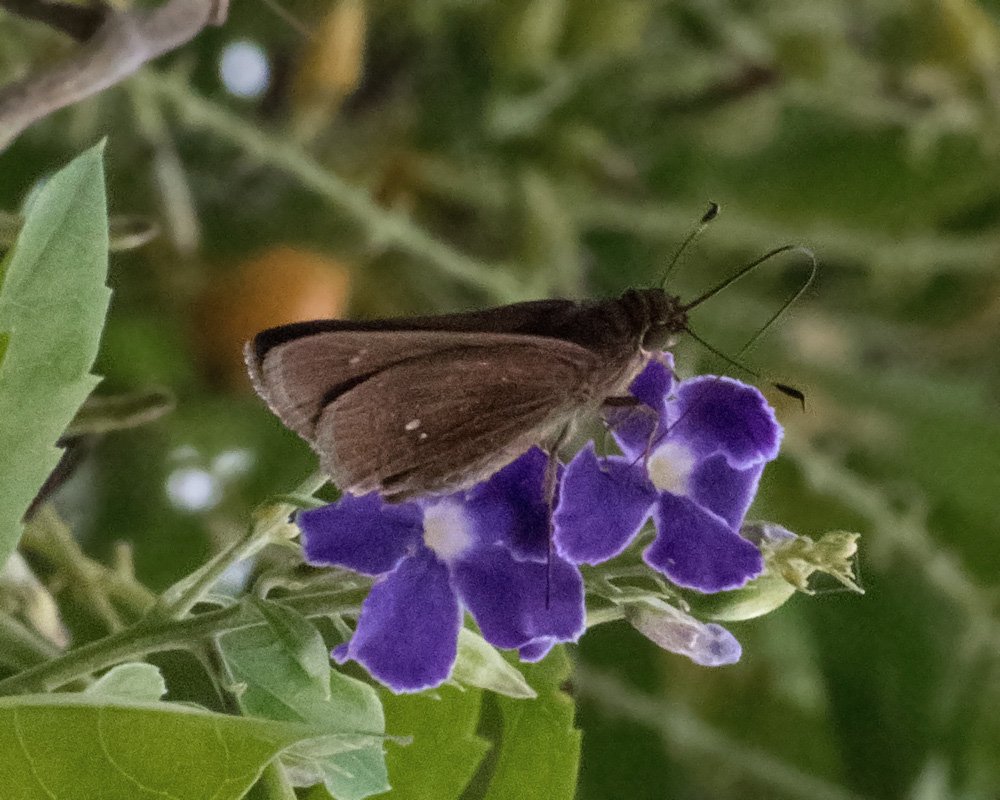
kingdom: Animalia
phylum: Arthropoda
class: Insecta
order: Lepidoptera
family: Hesperiidae
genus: Decinea
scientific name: Decinea percosius
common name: Double-dotted Skipper
